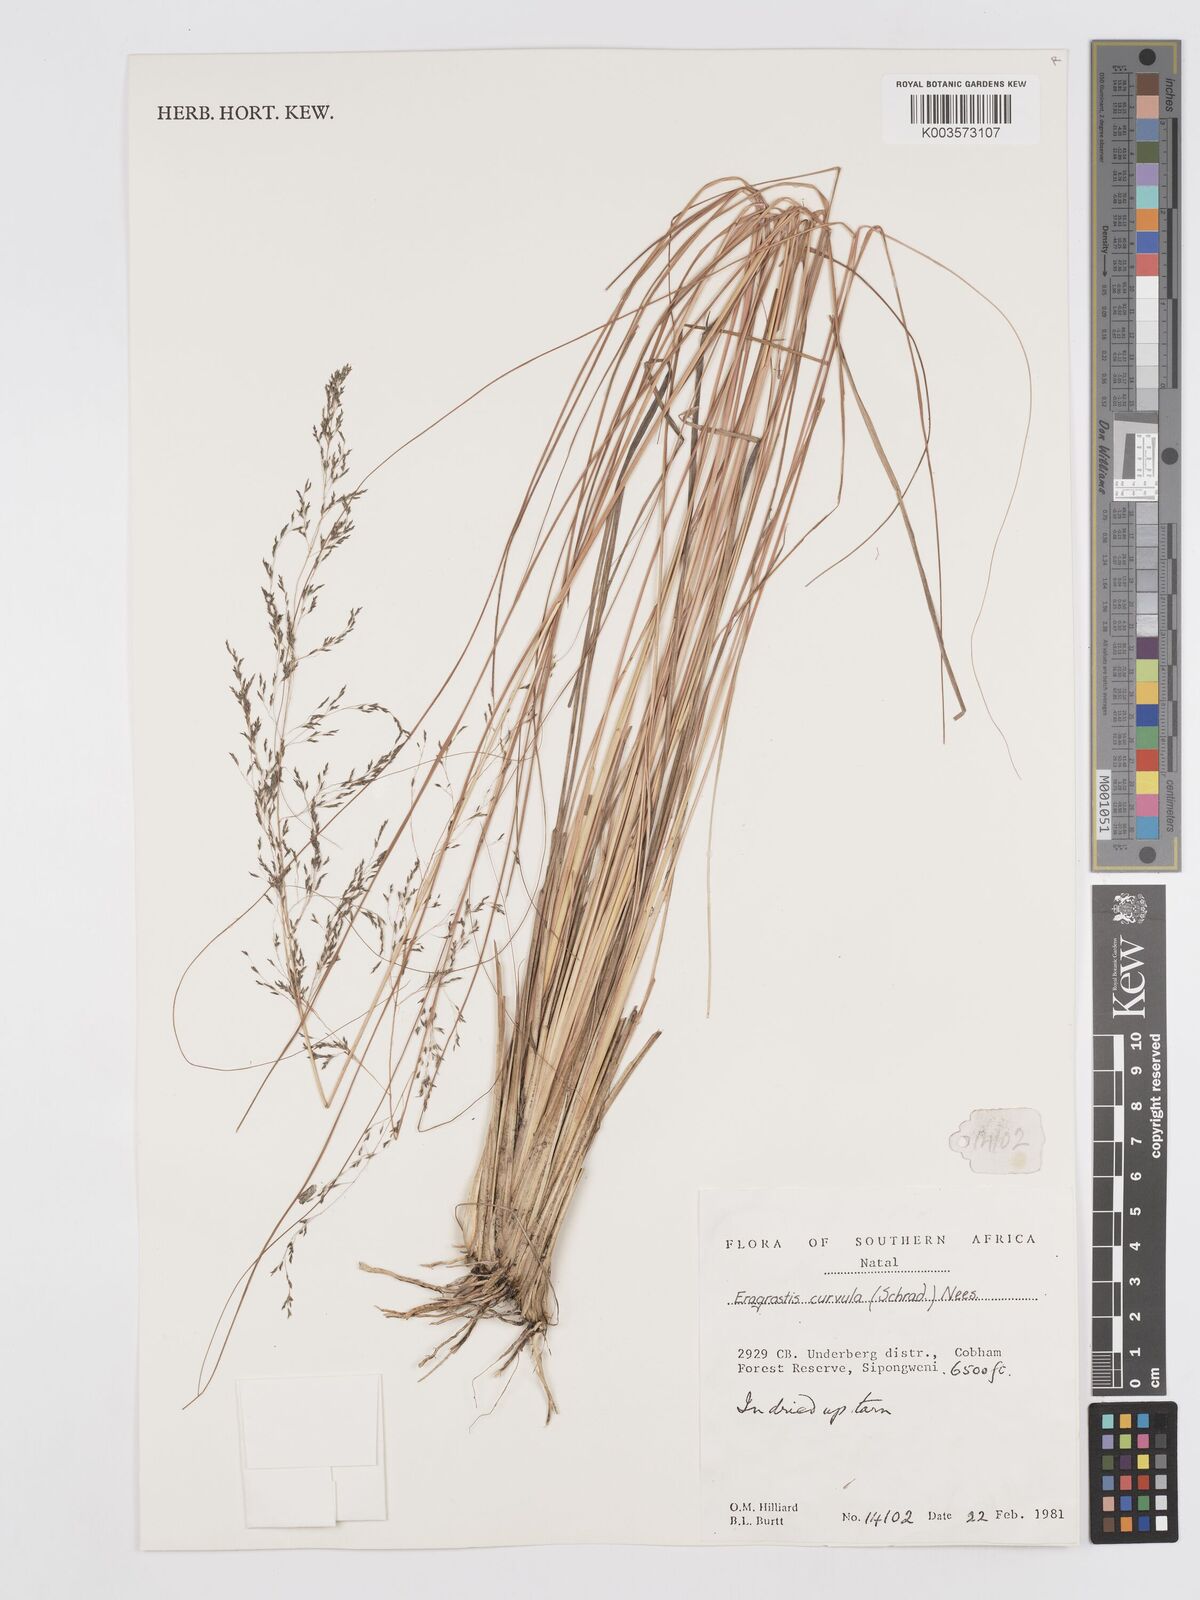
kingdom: Plantae
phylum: Tracheophyta
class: Liliopsida
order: Poales
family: Poaceae
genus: Eragrostis
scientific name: Eragrostis curvula
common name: African love-grass
